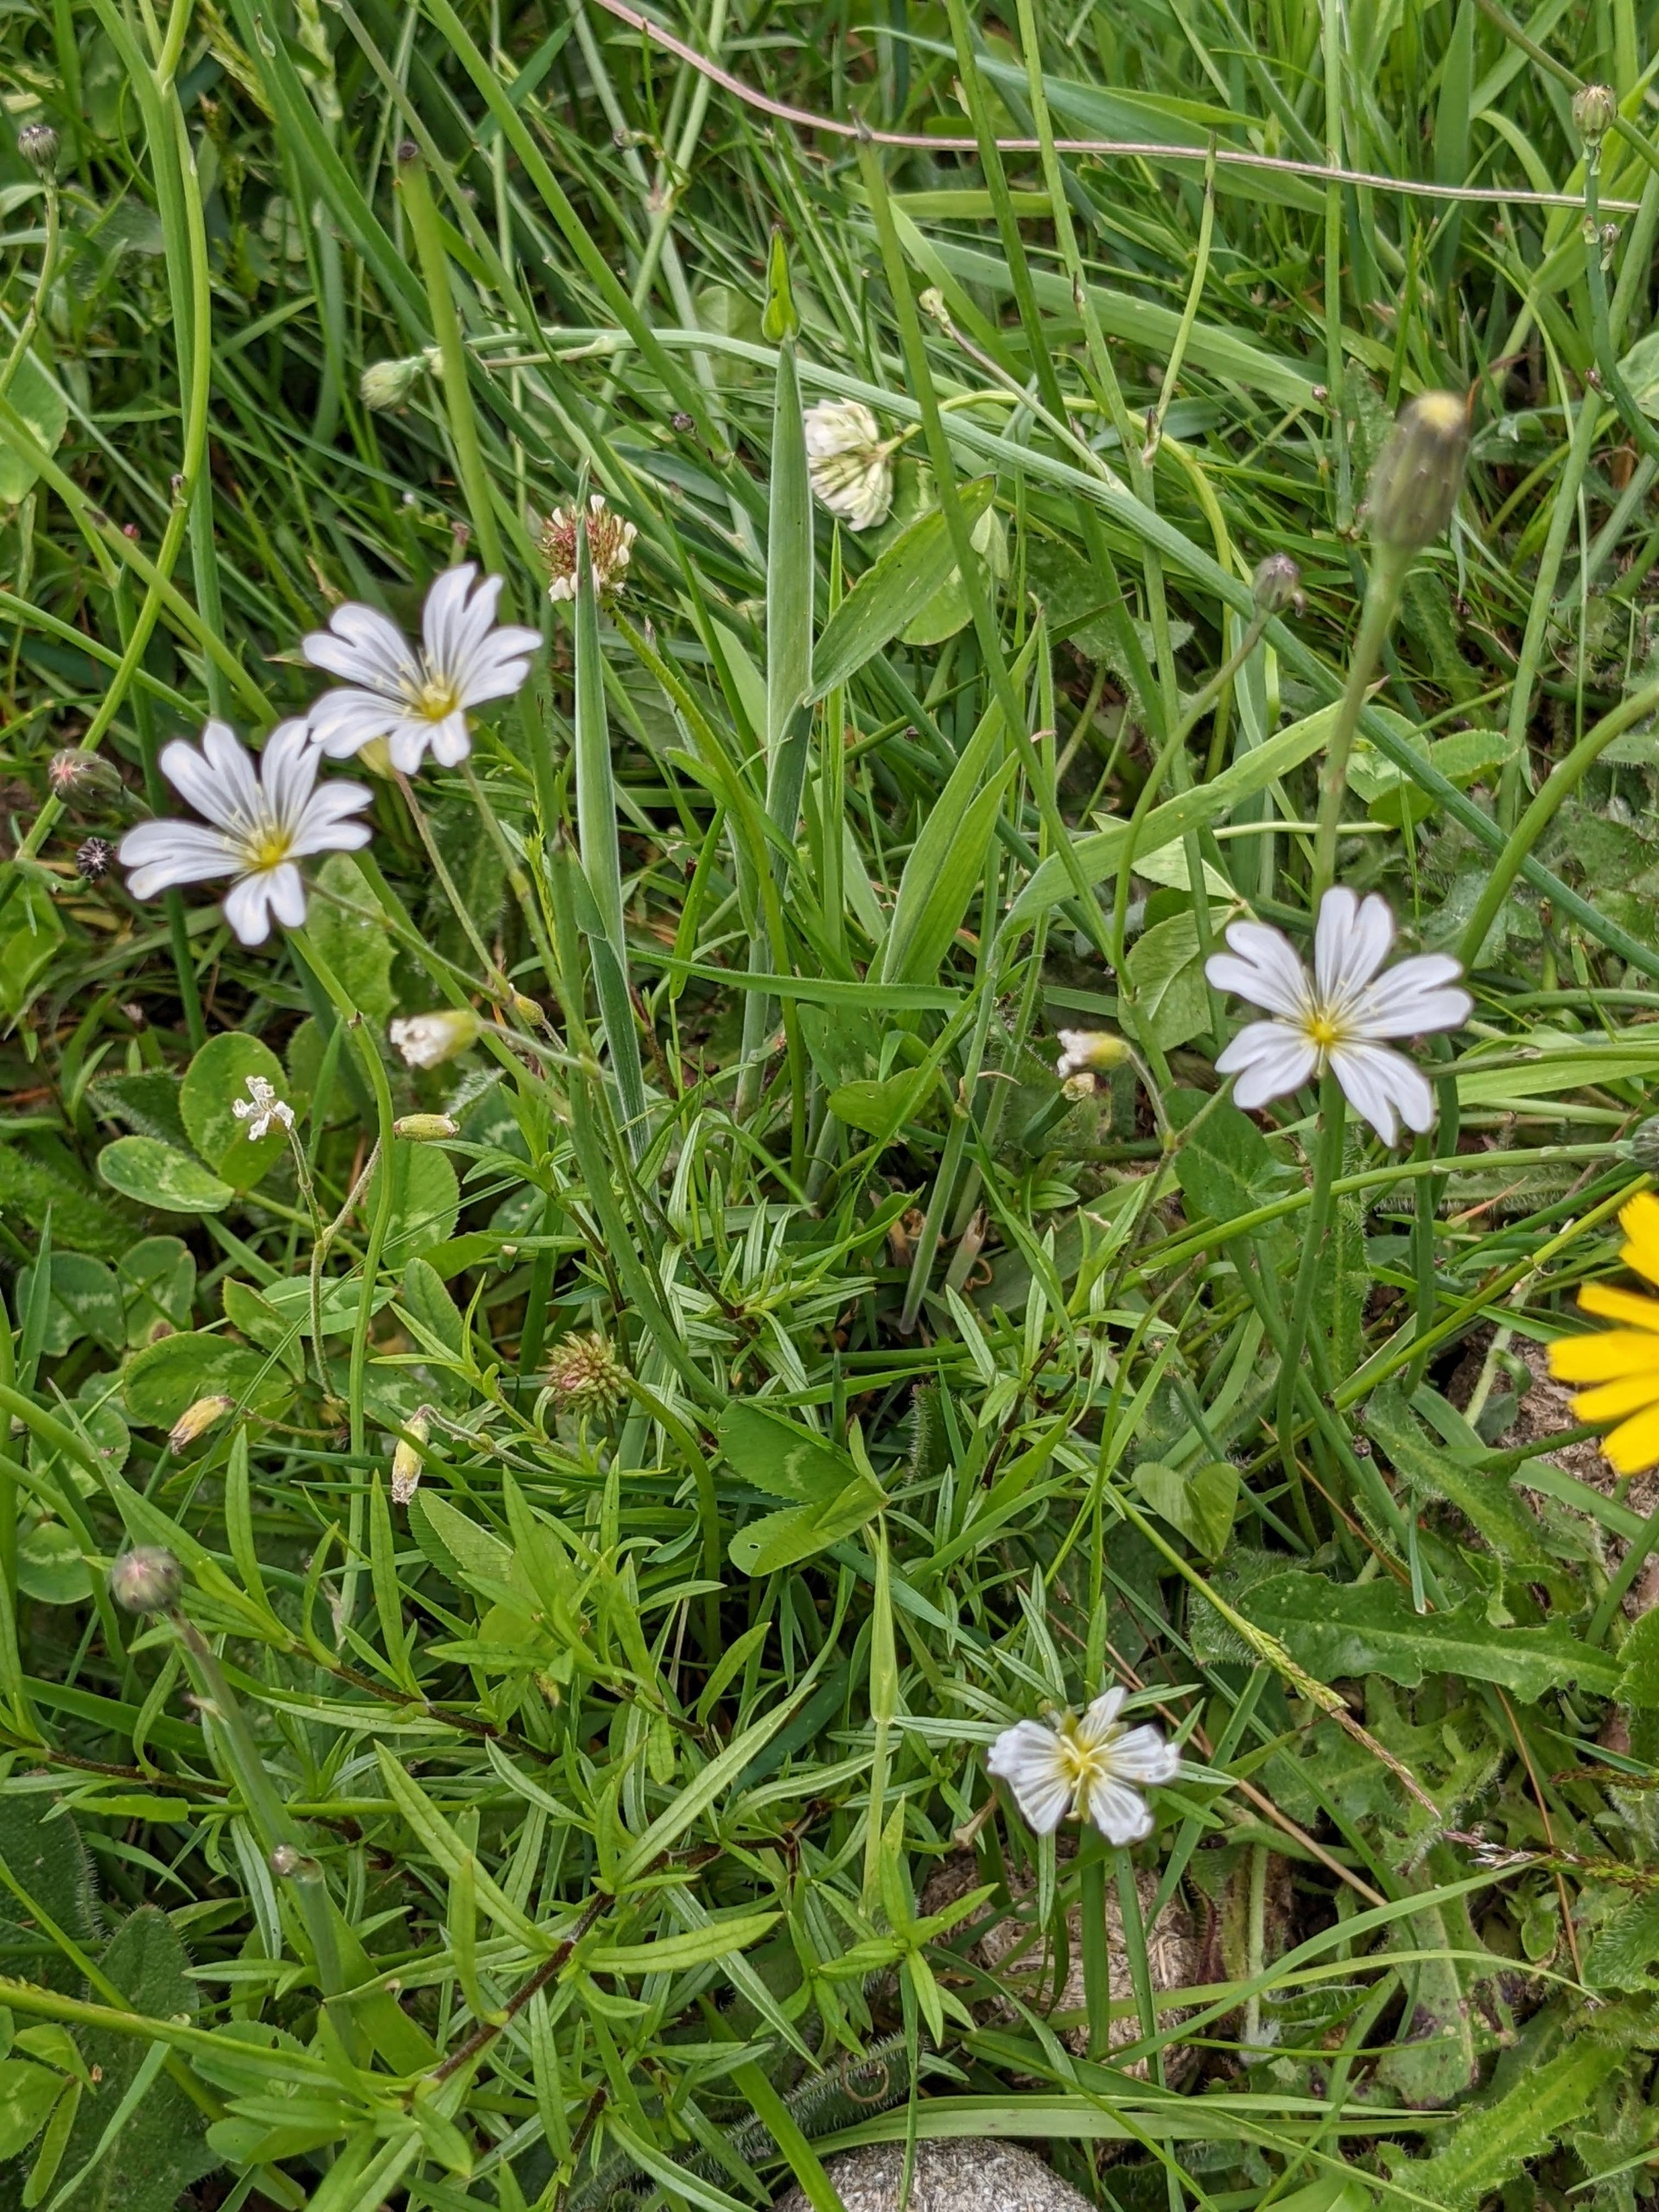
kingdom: Plantae
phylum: Tracheophyta
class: Magnoliopsida
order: Caryophyllales
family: Caryophyllaceae
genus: Cerastium
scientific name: Cerastium arvense
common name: Storblomstret hønsetarm
